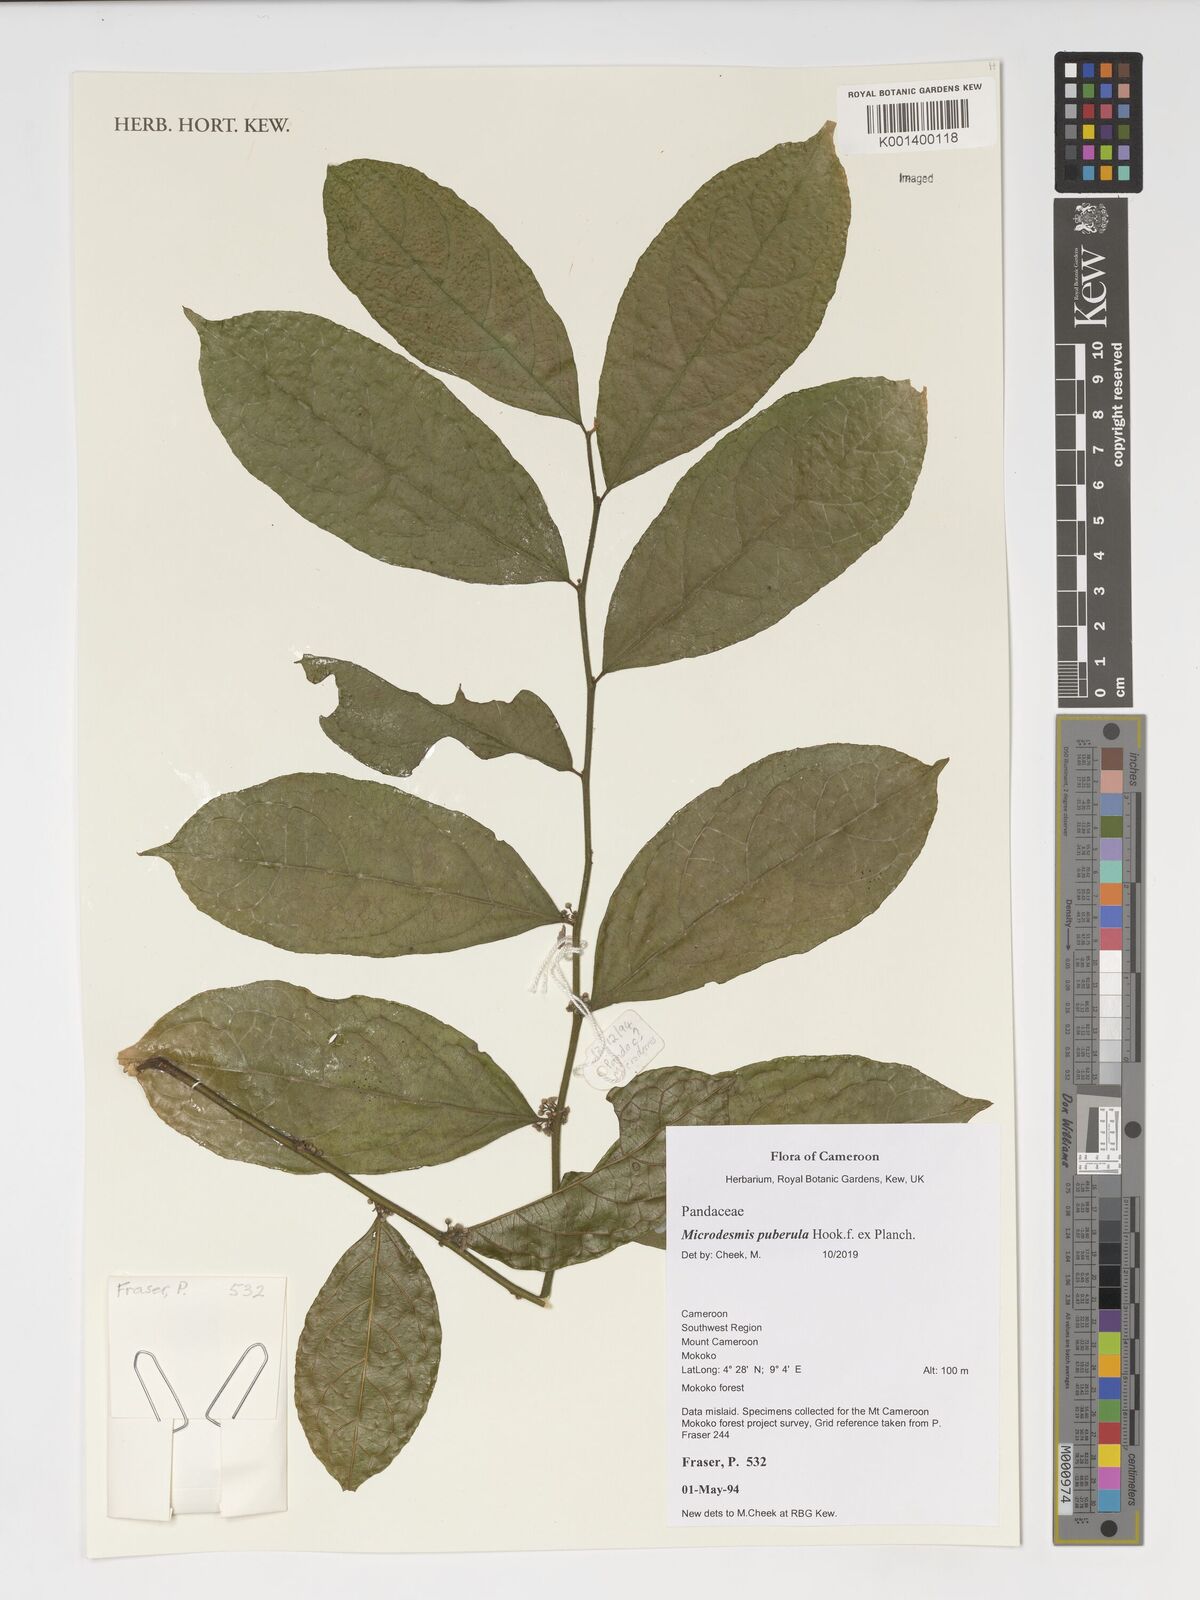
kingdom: Plantae
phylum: Tracheophyta
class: Magnoliopsida
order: Malpighiales
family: Pandaceae
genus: Microdesmis
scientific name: Microdesmis puberula
